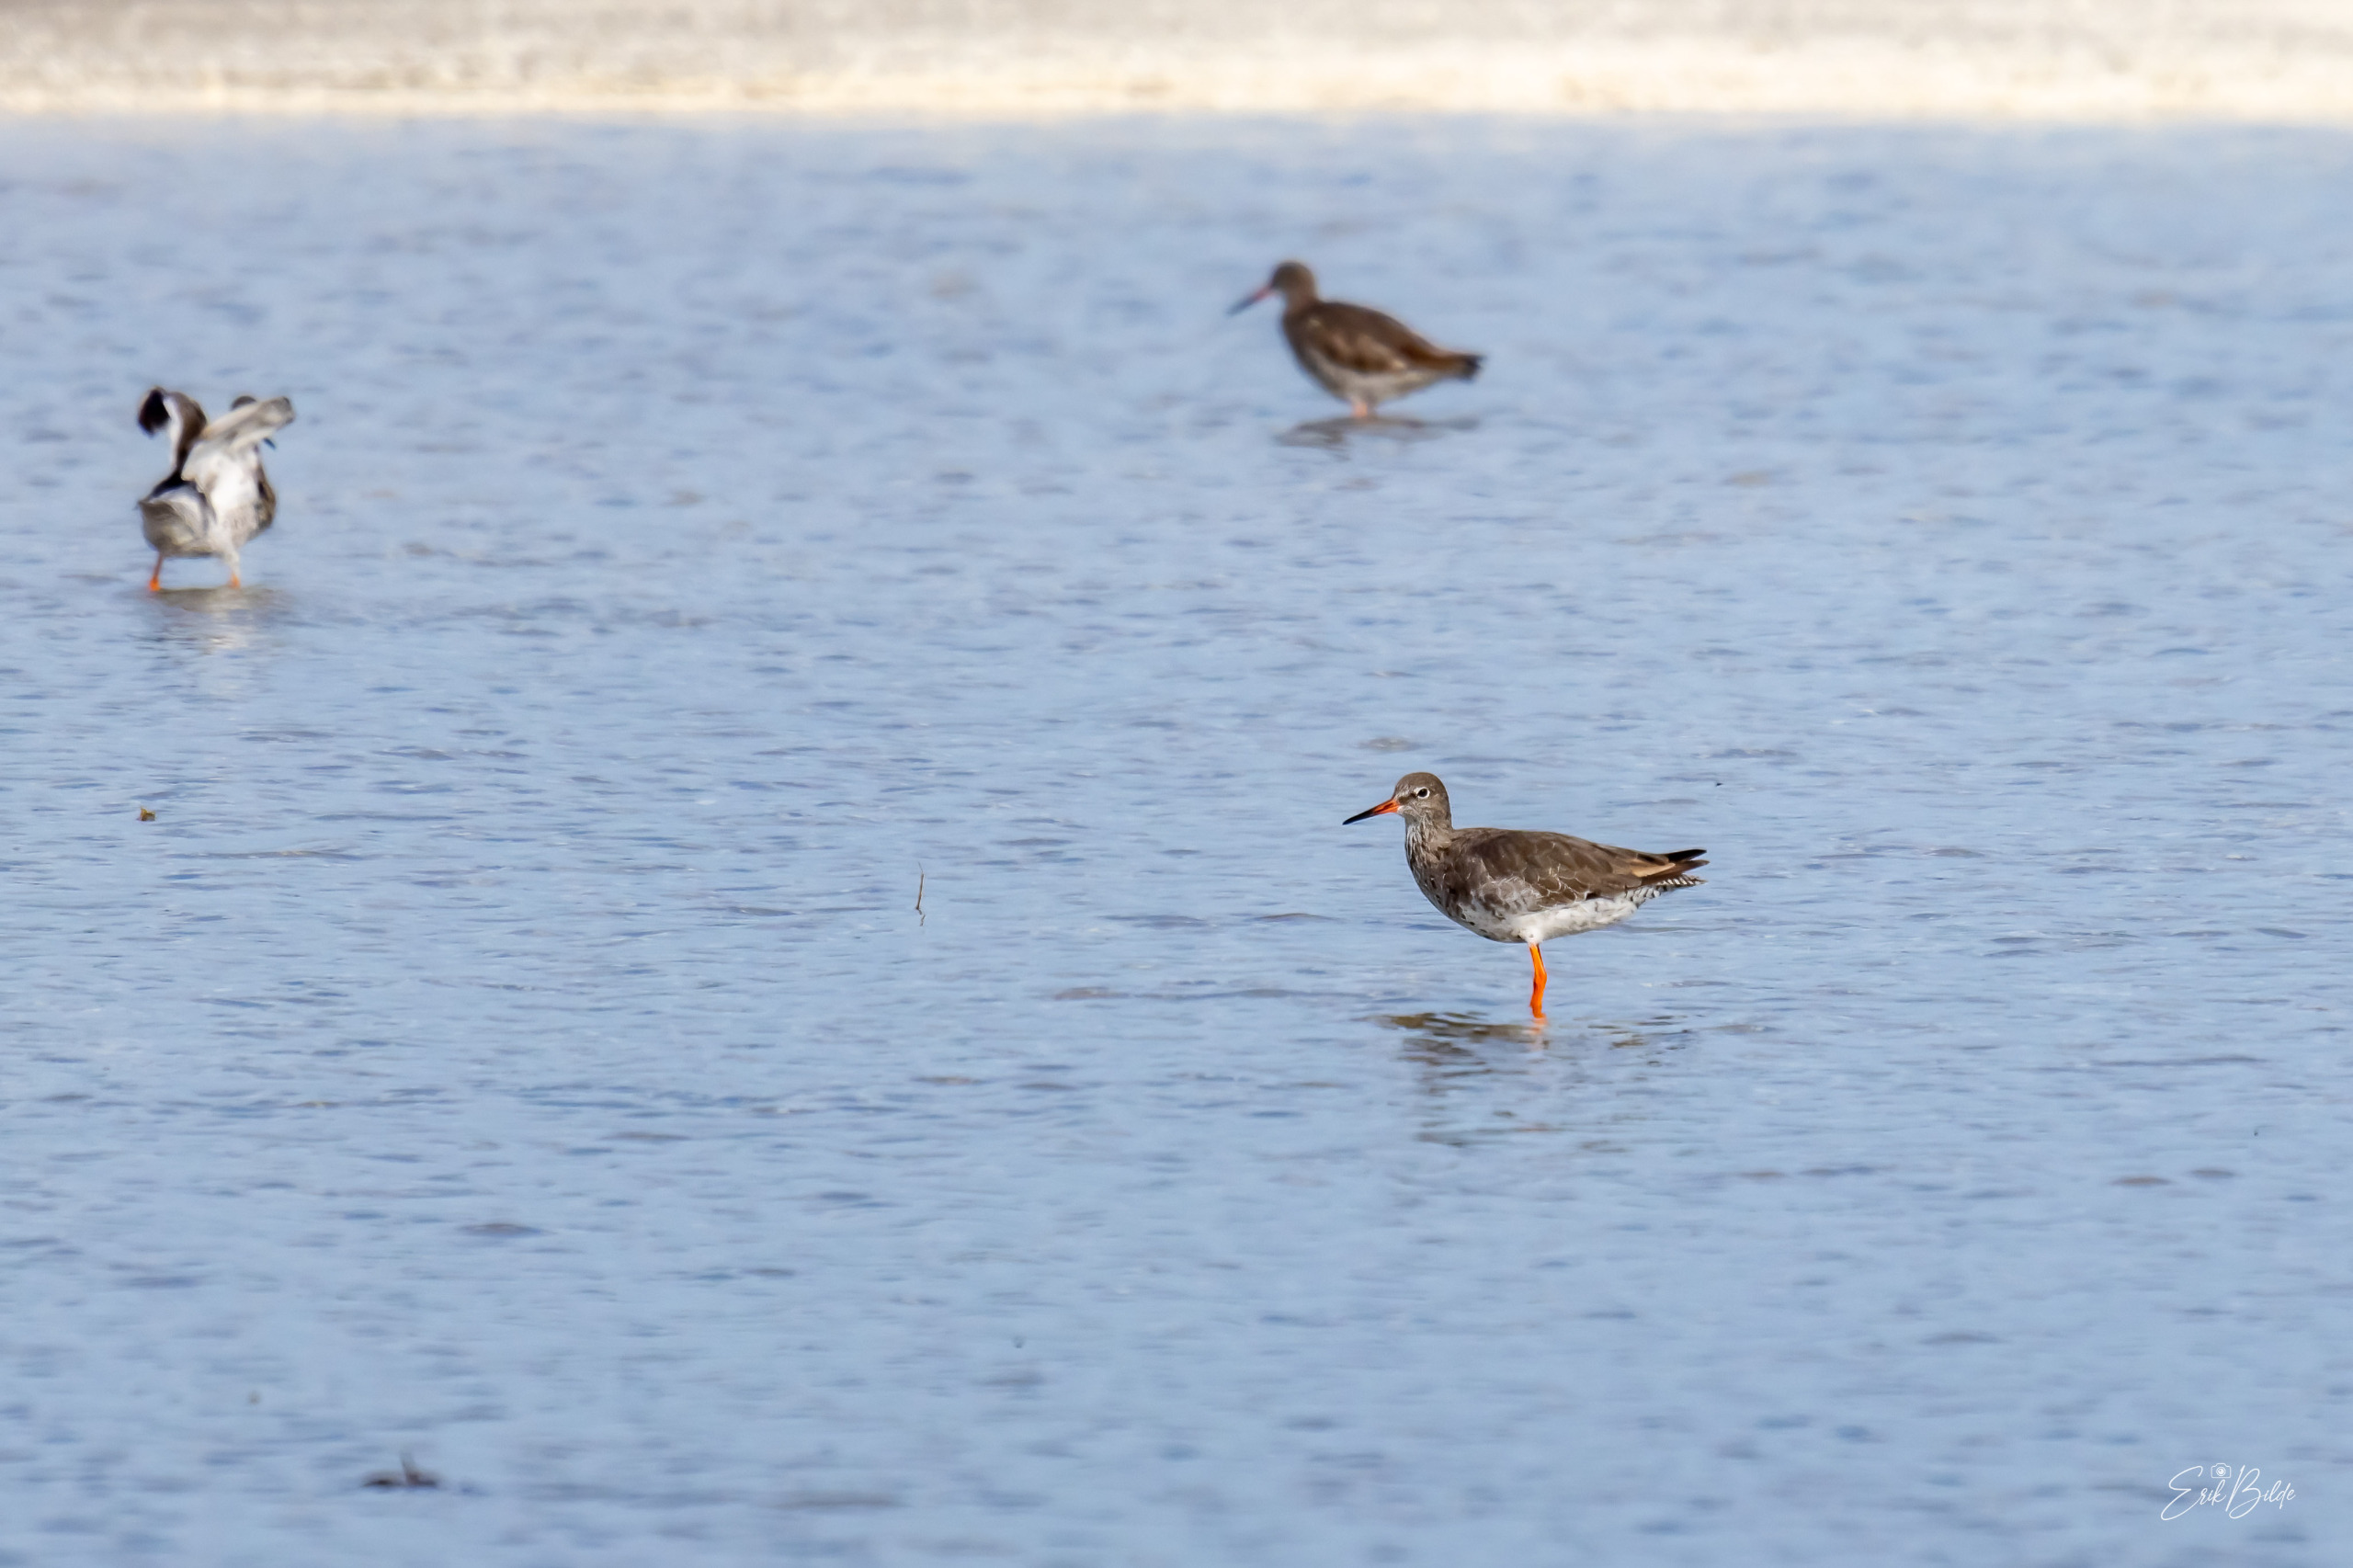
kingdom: Animalia
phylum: Chordata
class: Aves
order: Charadriiformes
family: Scolopacidae
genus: Tringa
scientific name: Tringa totanus
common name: Rødben
